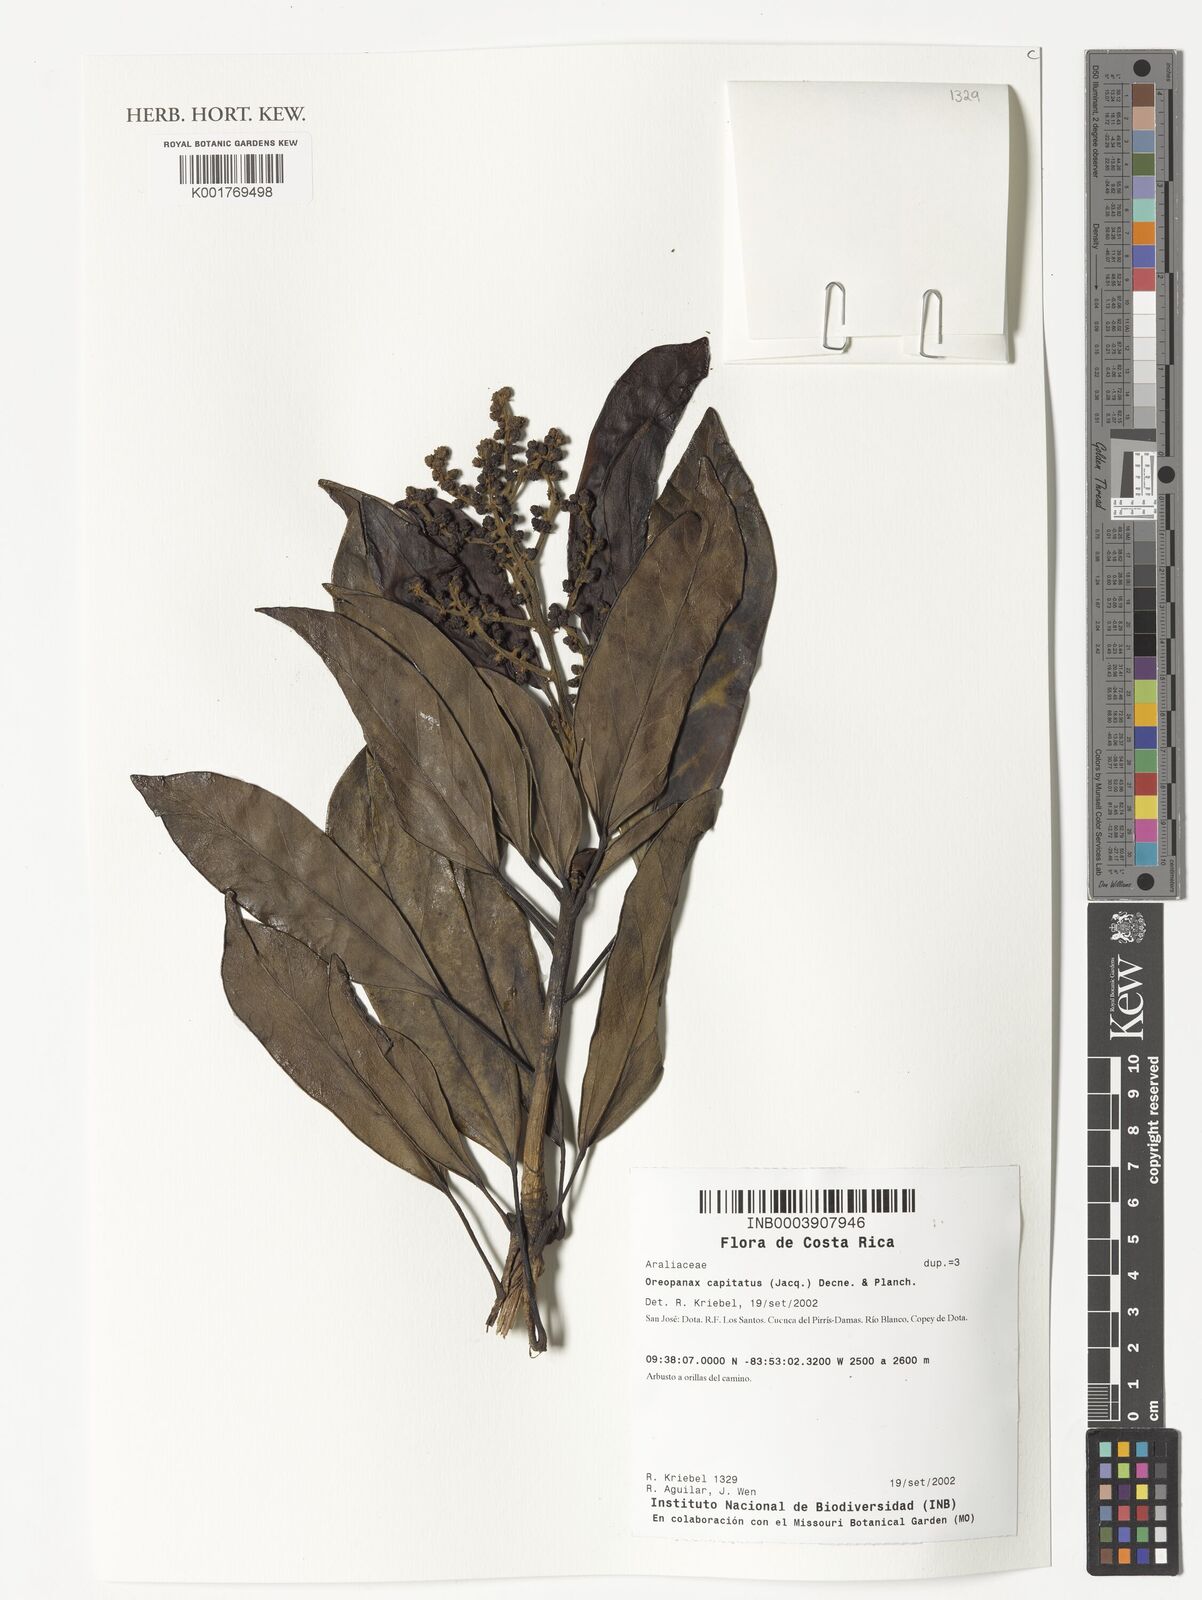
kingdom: Plantae
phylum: Tracheophyta
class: Magnoliopsida
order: Apiales
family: Araliaceae
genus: Oreopanax
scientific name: Oreopanax capitatus
